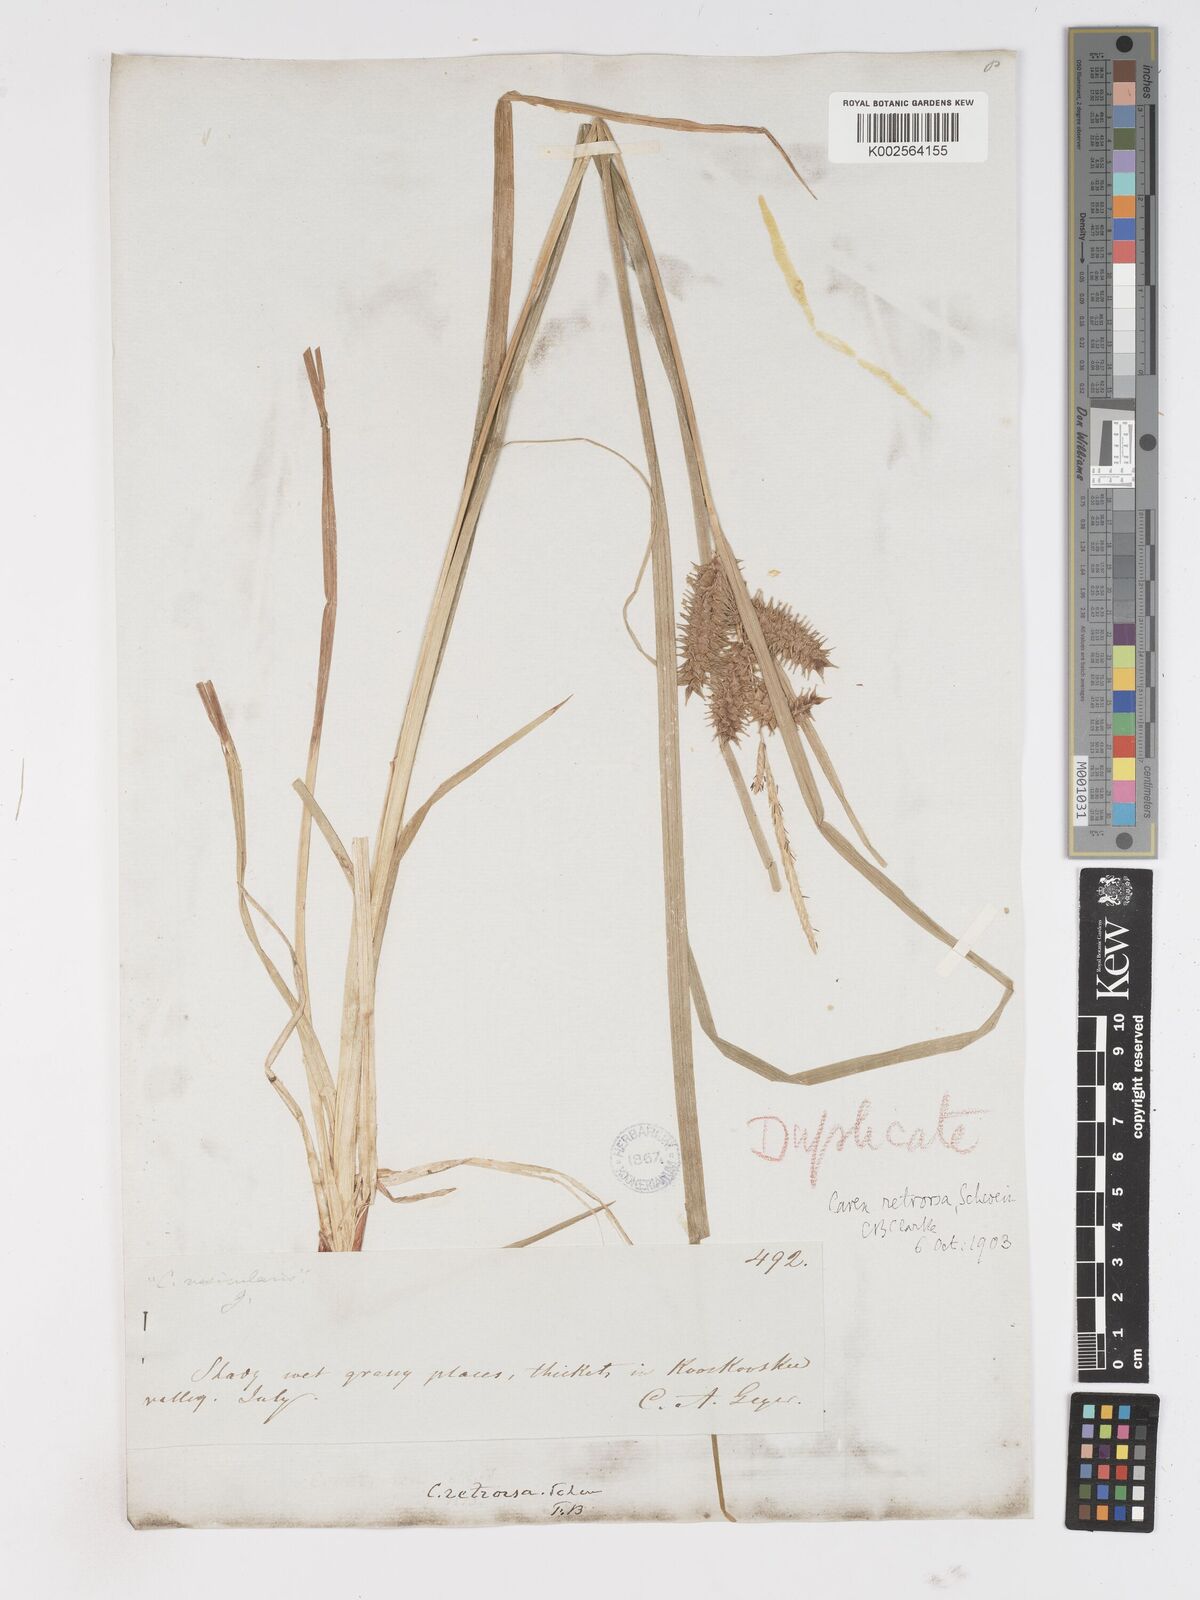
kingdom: Plantae
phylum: Tracheophyta
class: Liliopsida
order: Poales
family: Cyperaceae
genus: Carex
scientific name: Carex retrorsa
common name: Knot-sheath sedge
